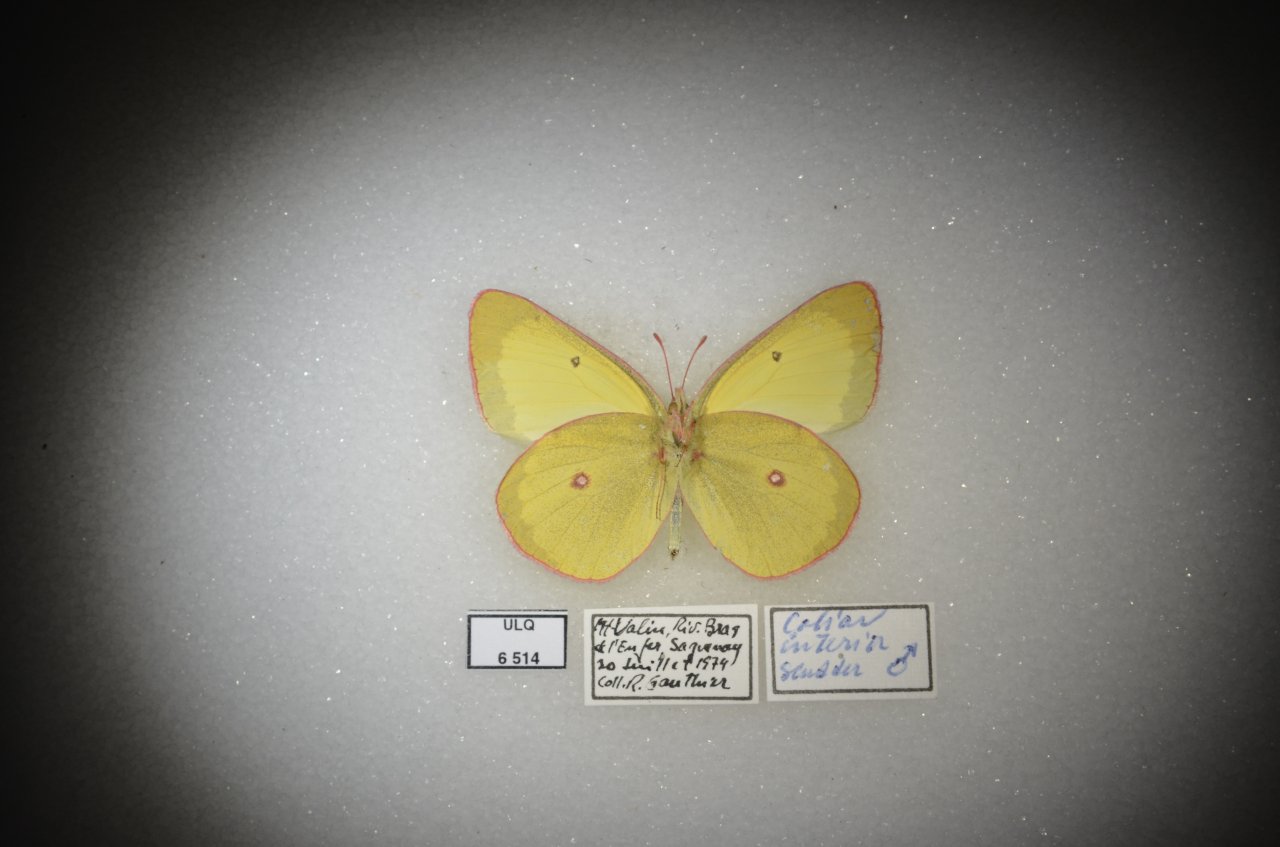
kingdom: Animalia
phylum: Arthropoda
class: Insecta
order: Lepidoptera
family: Pieridae
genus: Colias
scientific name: Colias interior
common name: Pink-edged Sulphur
